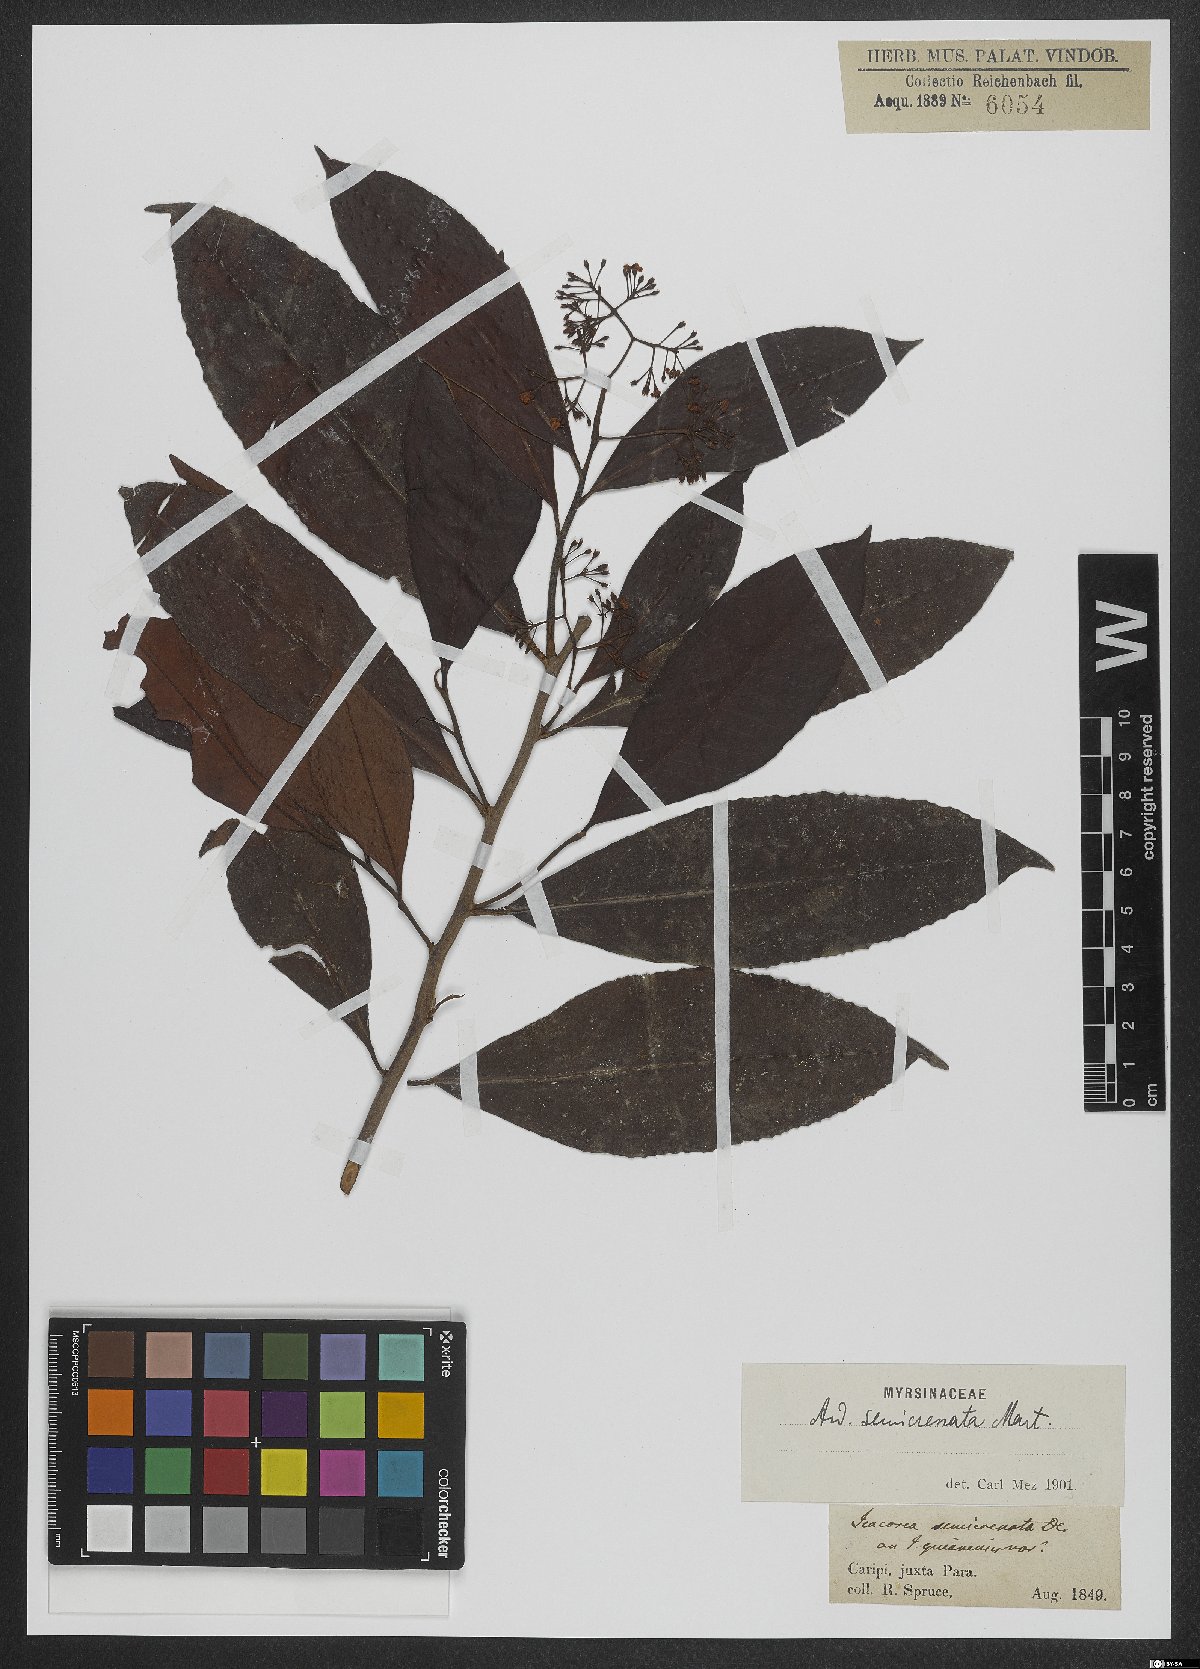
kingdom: Plantae
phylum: Tracheophyta
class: Magnoliopsida
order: Ericales
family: Primulaceae
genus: Ardisia
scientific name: Ardisia guianensis
